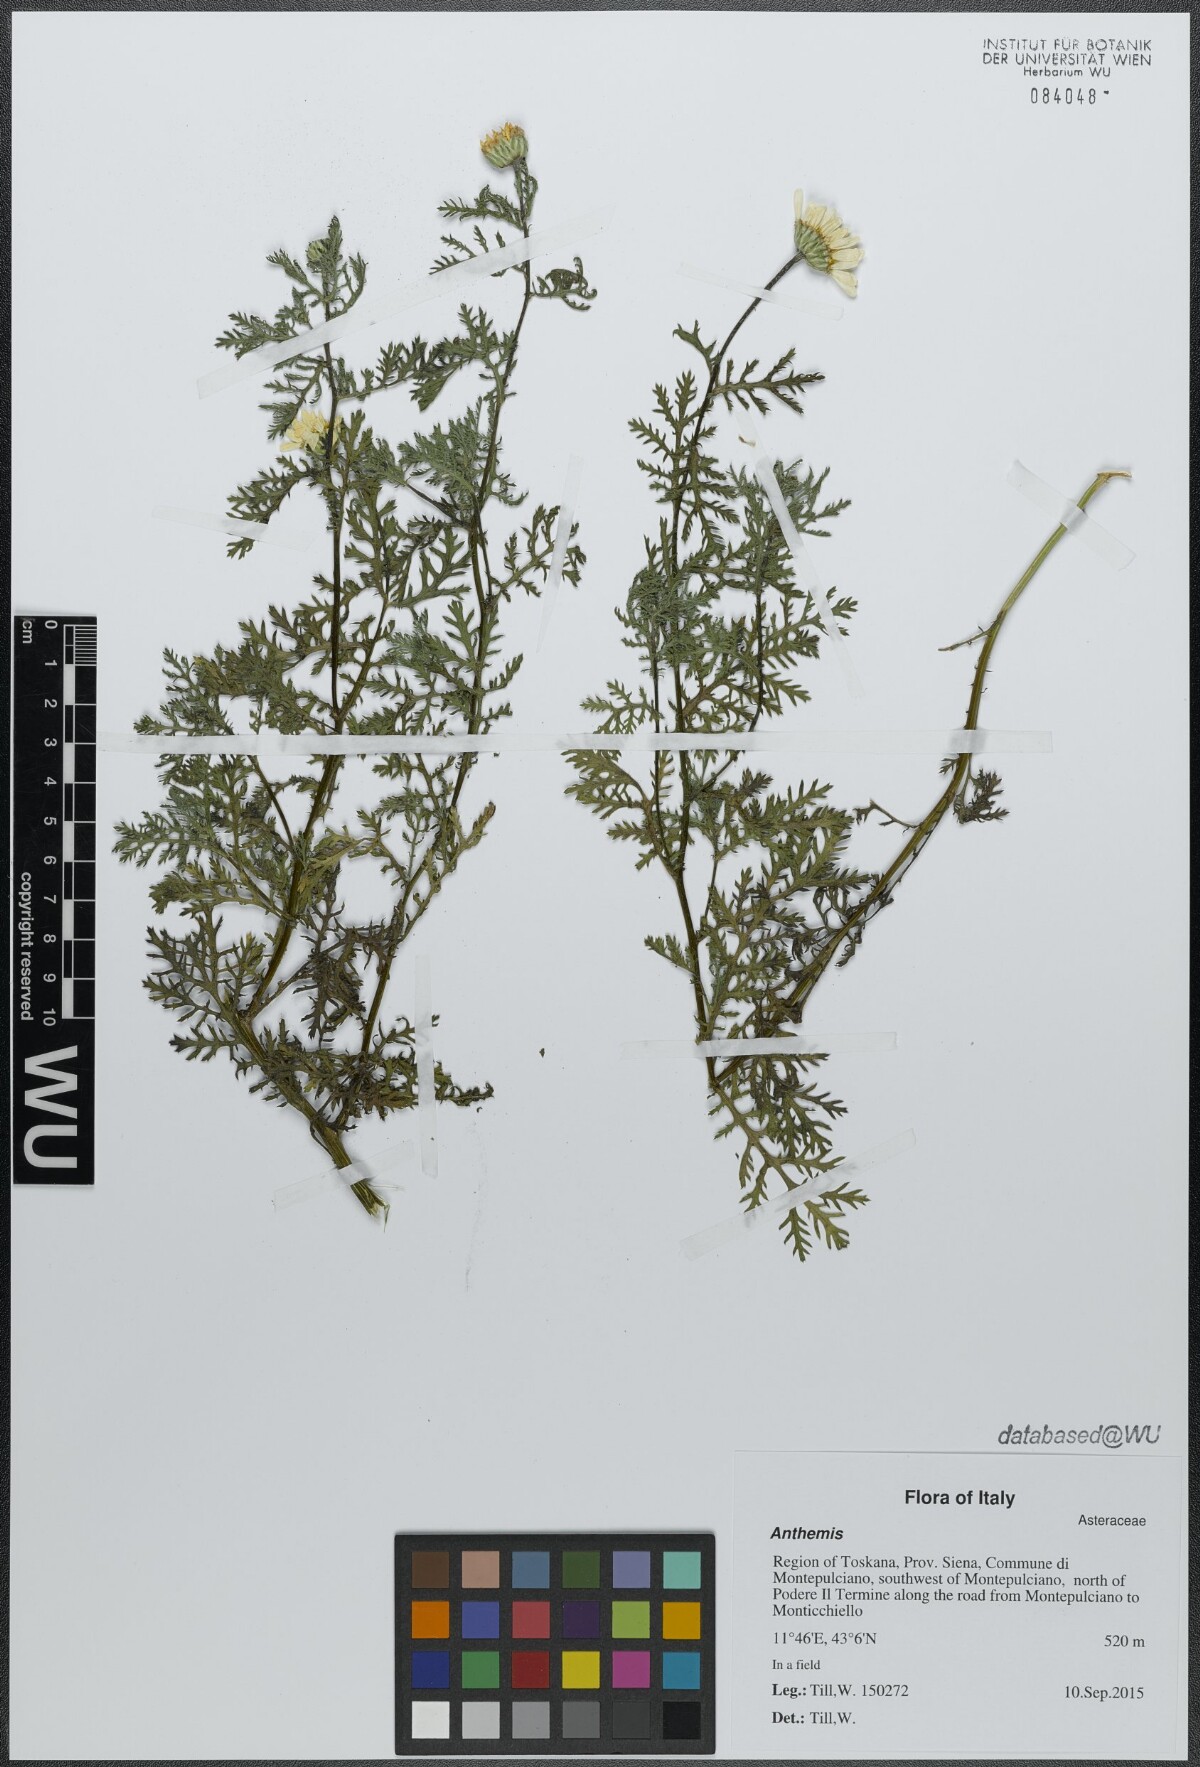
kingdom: Plantae
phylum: Tracheophyta
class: Magnoliopsida
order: Asterales
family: Asteraceae
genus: Anthemis
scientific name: Anthemis
